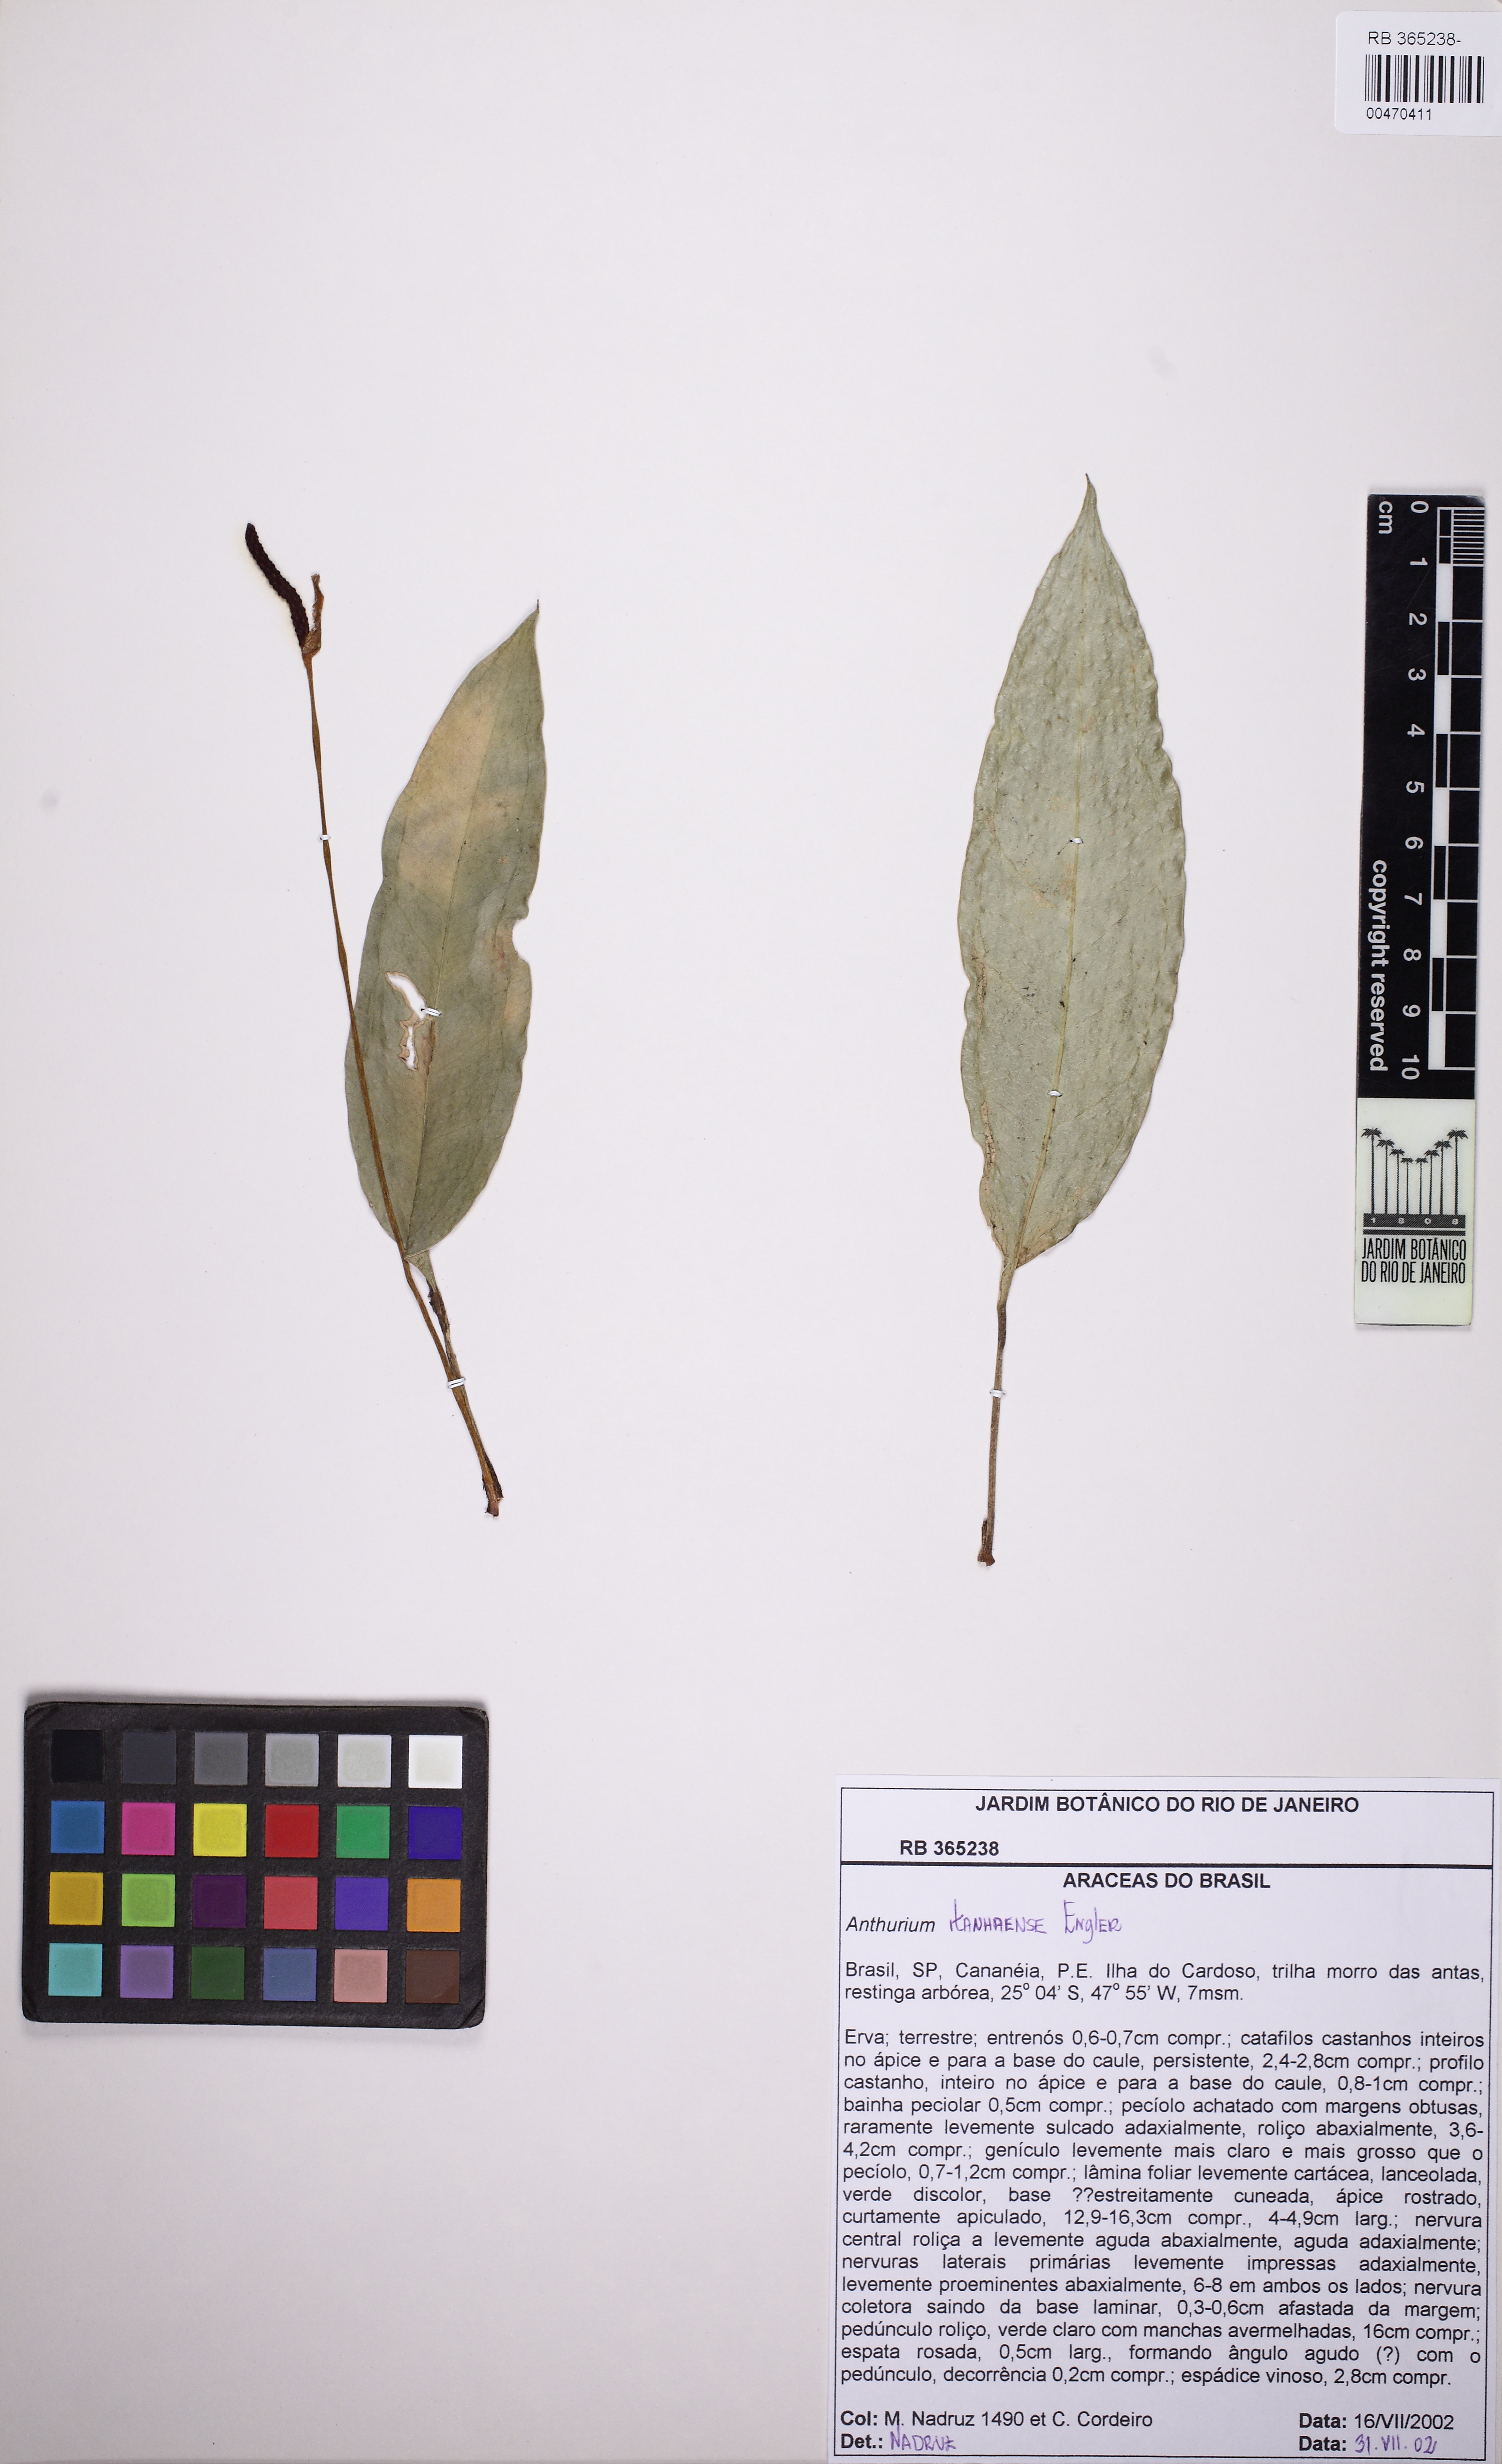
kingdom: Plantae
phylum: Tracheophyta
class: Liliopsida
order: Alismatales
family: Araceae
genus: Anthurium
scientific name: Anthurium loefgrenii
